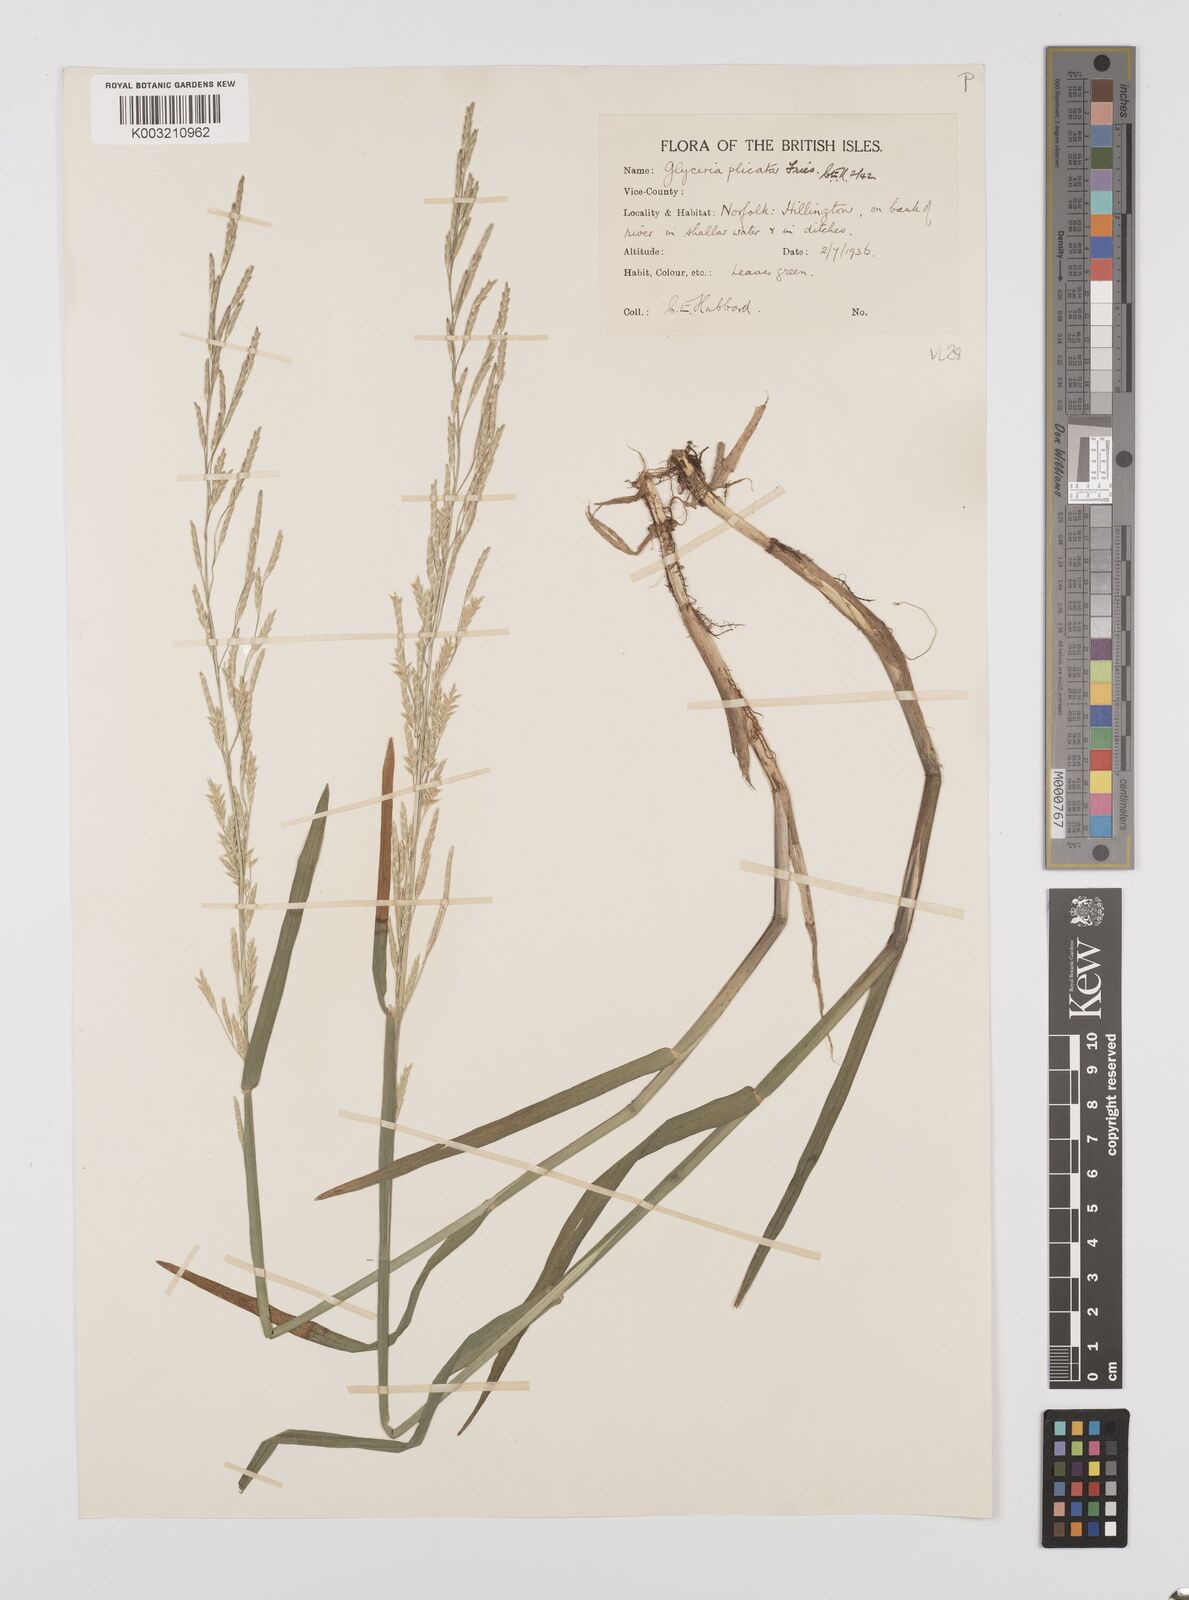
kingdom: Plantae
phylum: Tracheophyta
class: Liliopsida
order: Poales
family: Poaceae
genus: Glyceria
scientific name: Glyceria notata
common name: Plicate sweet-grass
